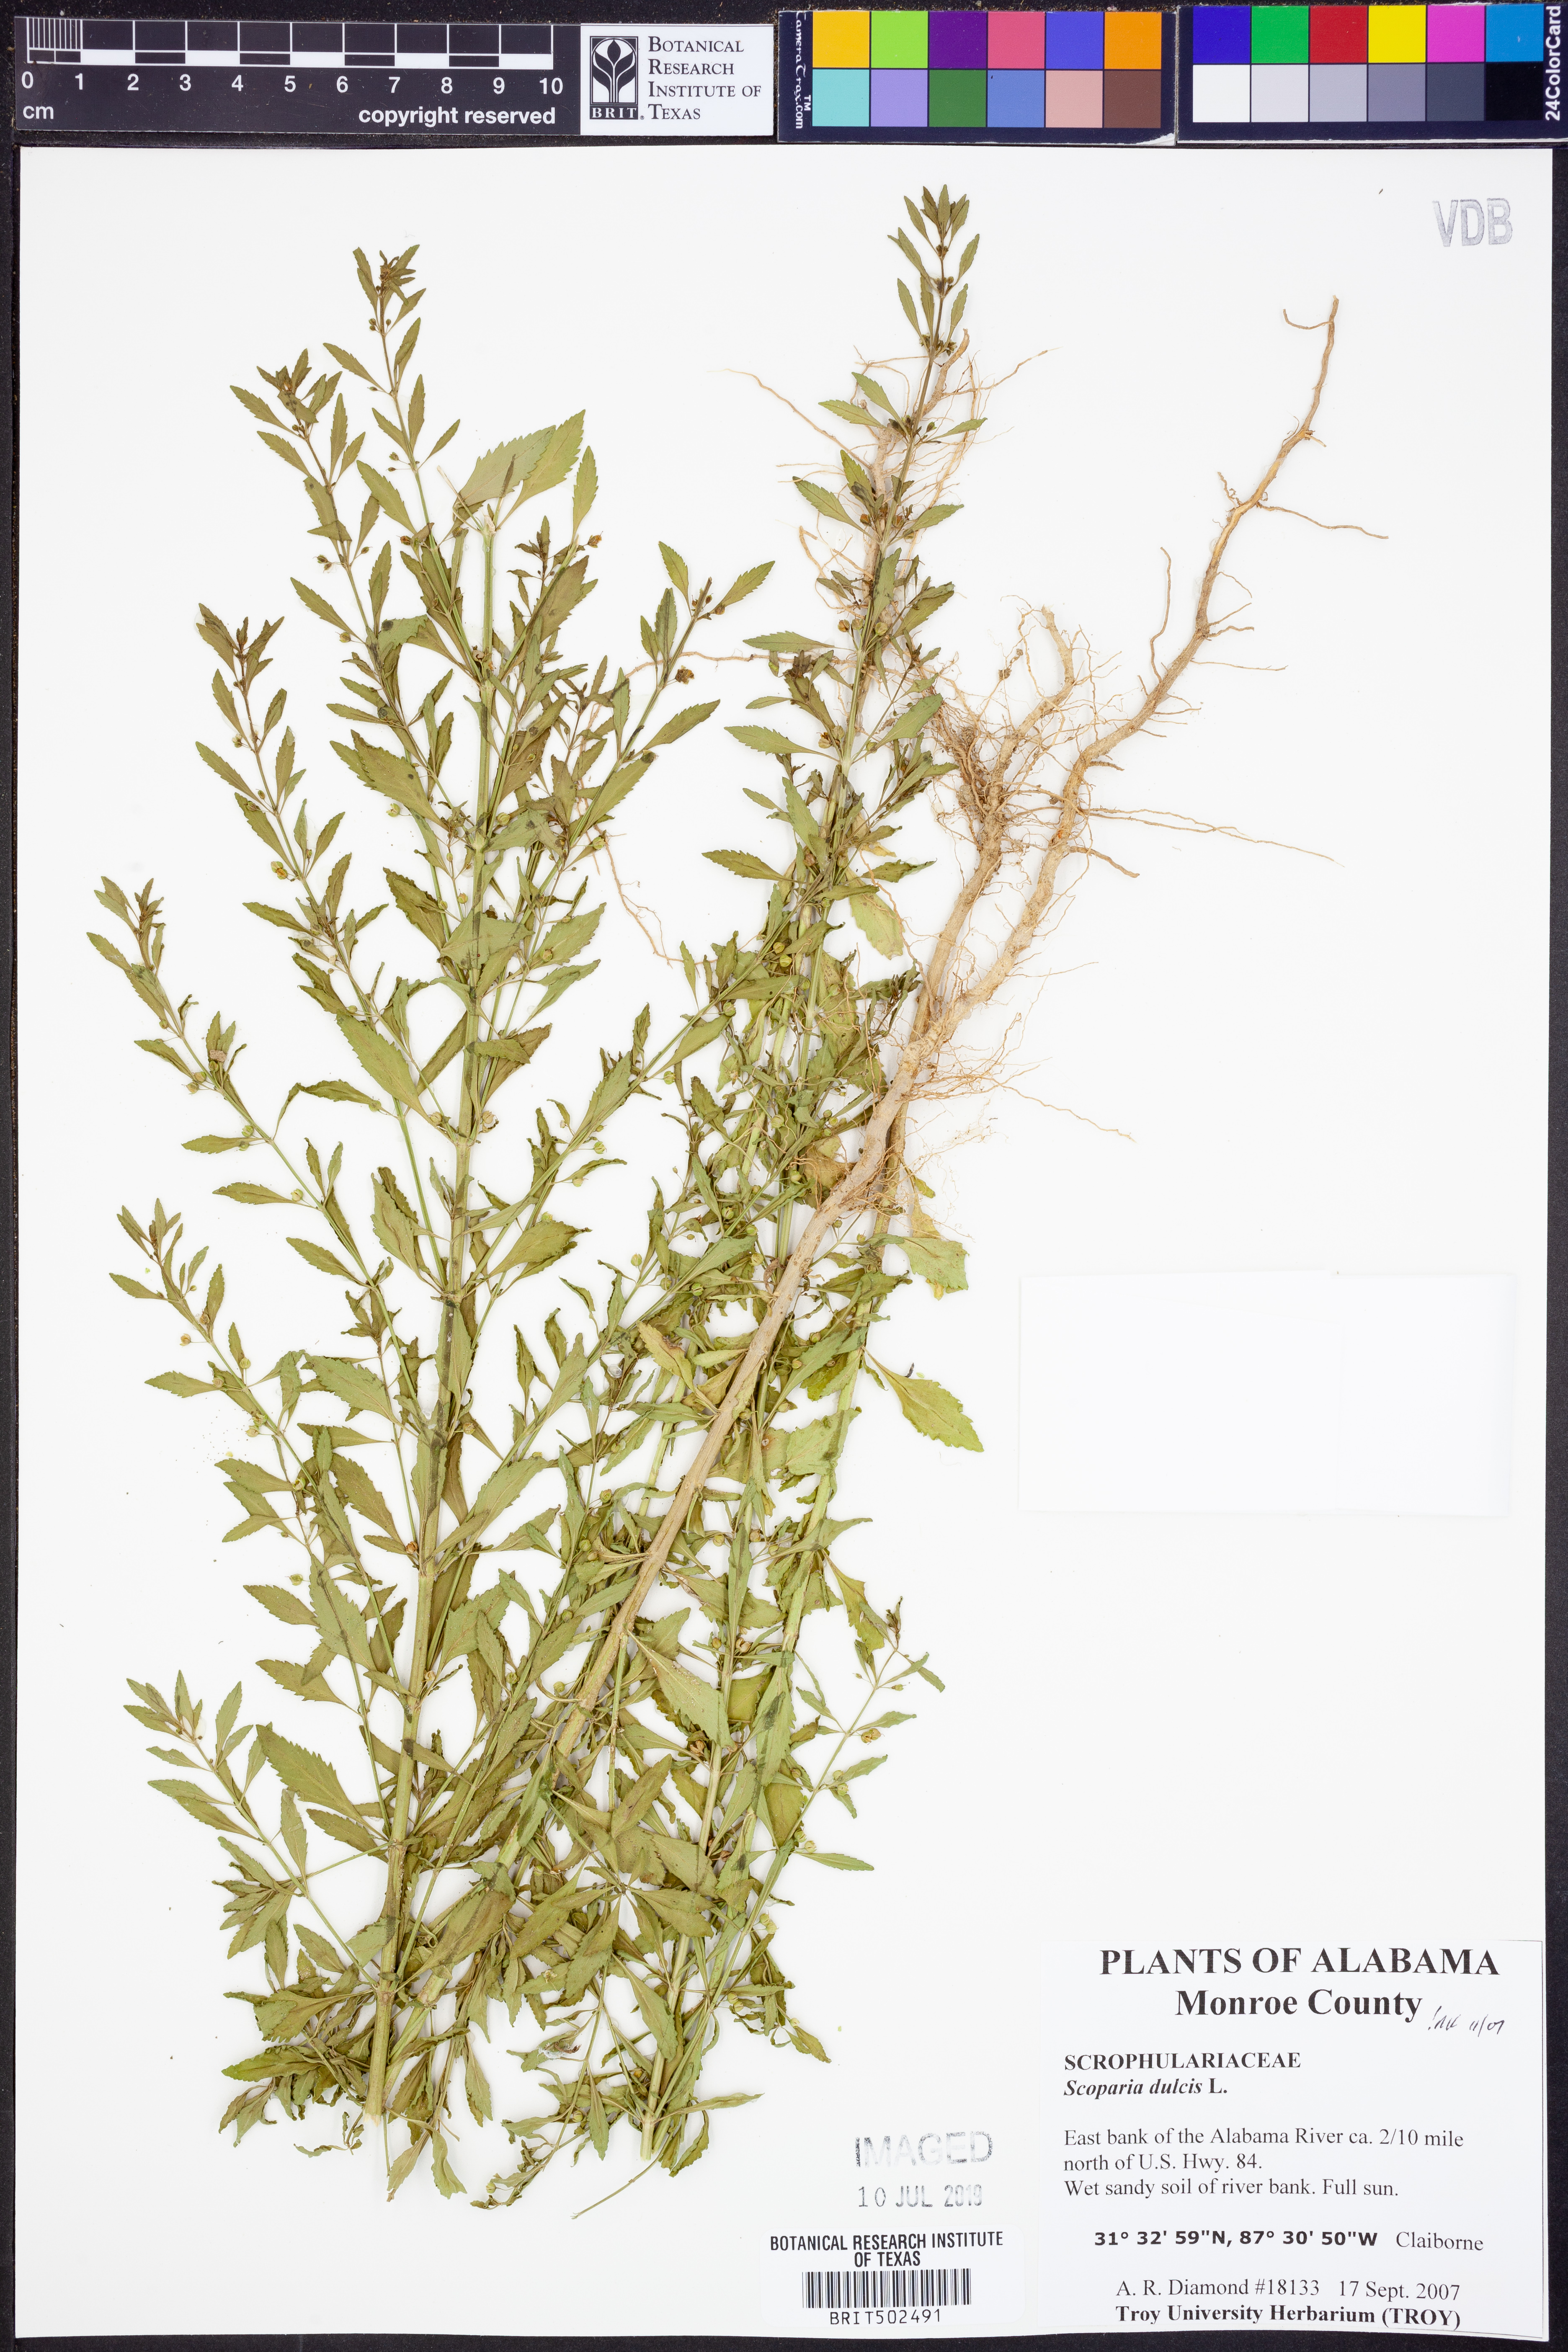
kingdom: Plantae
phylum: Tracheophyta
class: Magnoliopsida
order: Lamiales
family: Plantaginaceae
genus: Scoparia
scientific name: Scoparia dulcis
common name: Scoparia-weed
